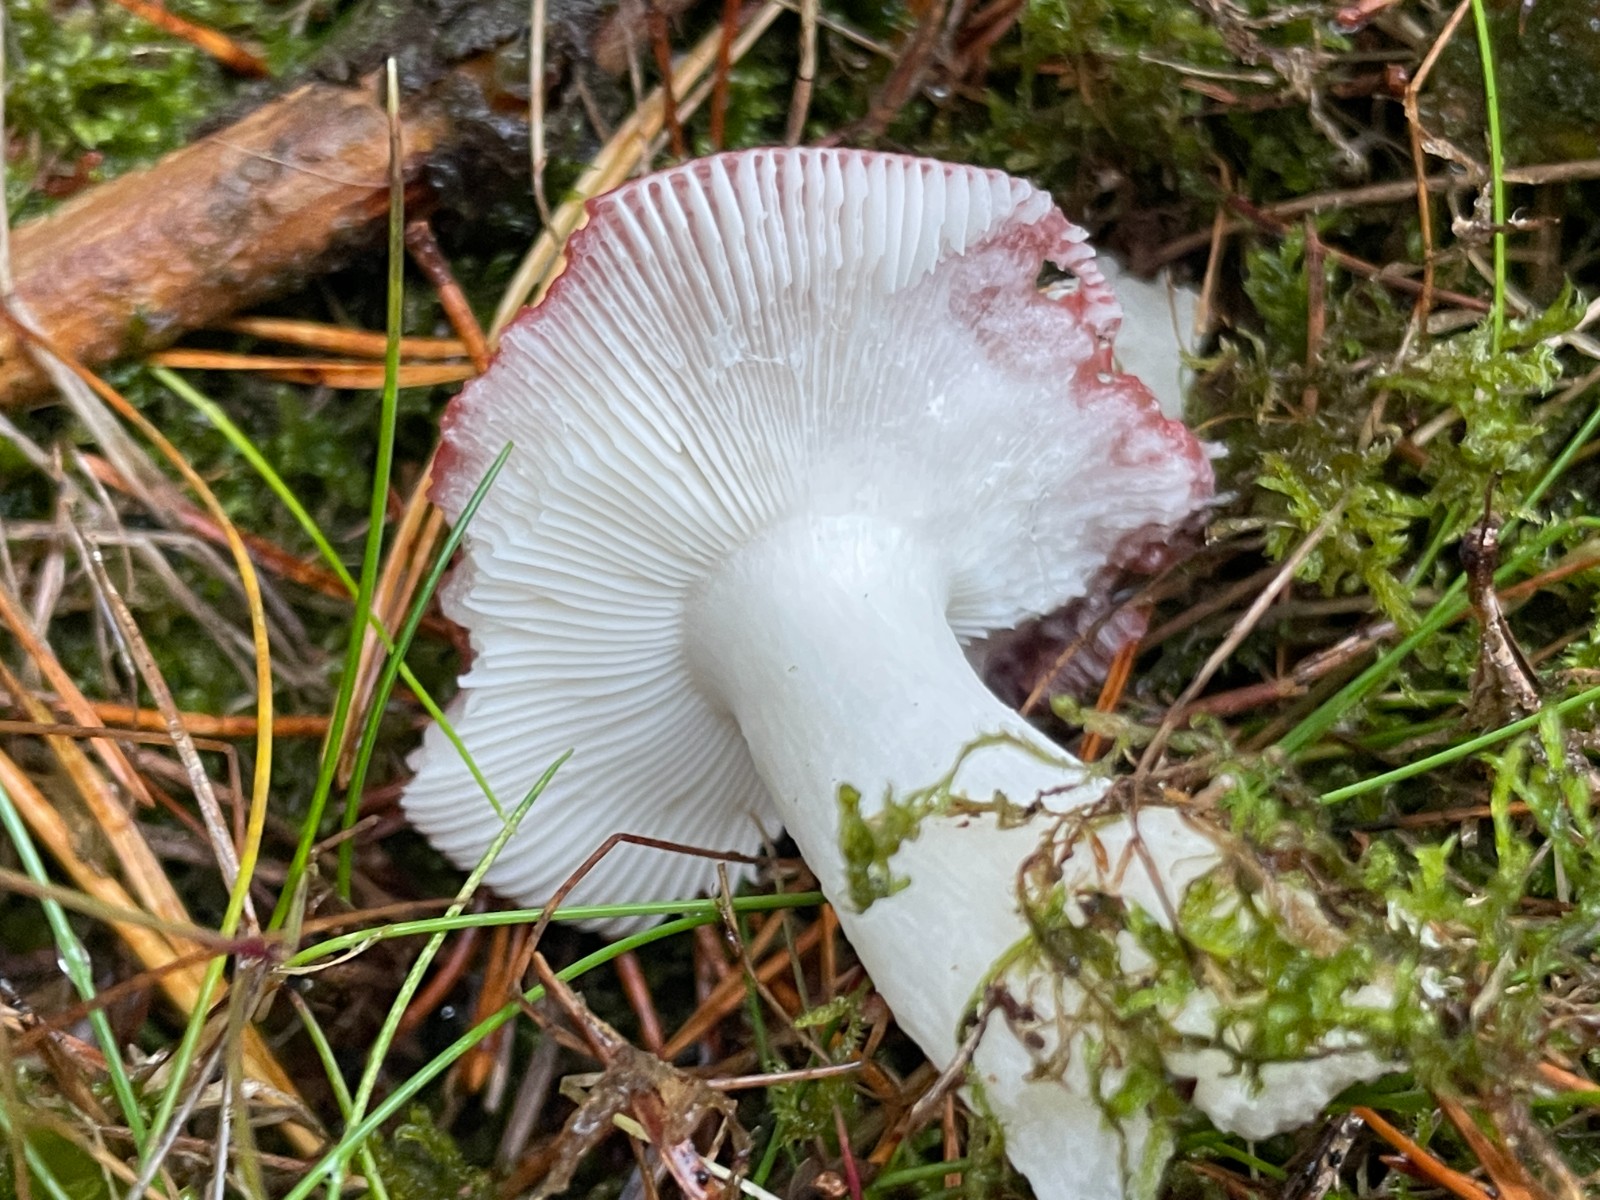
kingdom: Fungi
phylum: Basidiomycota
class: Agaricomycetes
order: Russulales
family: Russulaceae
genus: Russula
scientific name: Russula emetica
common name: stor gift-skørhat
